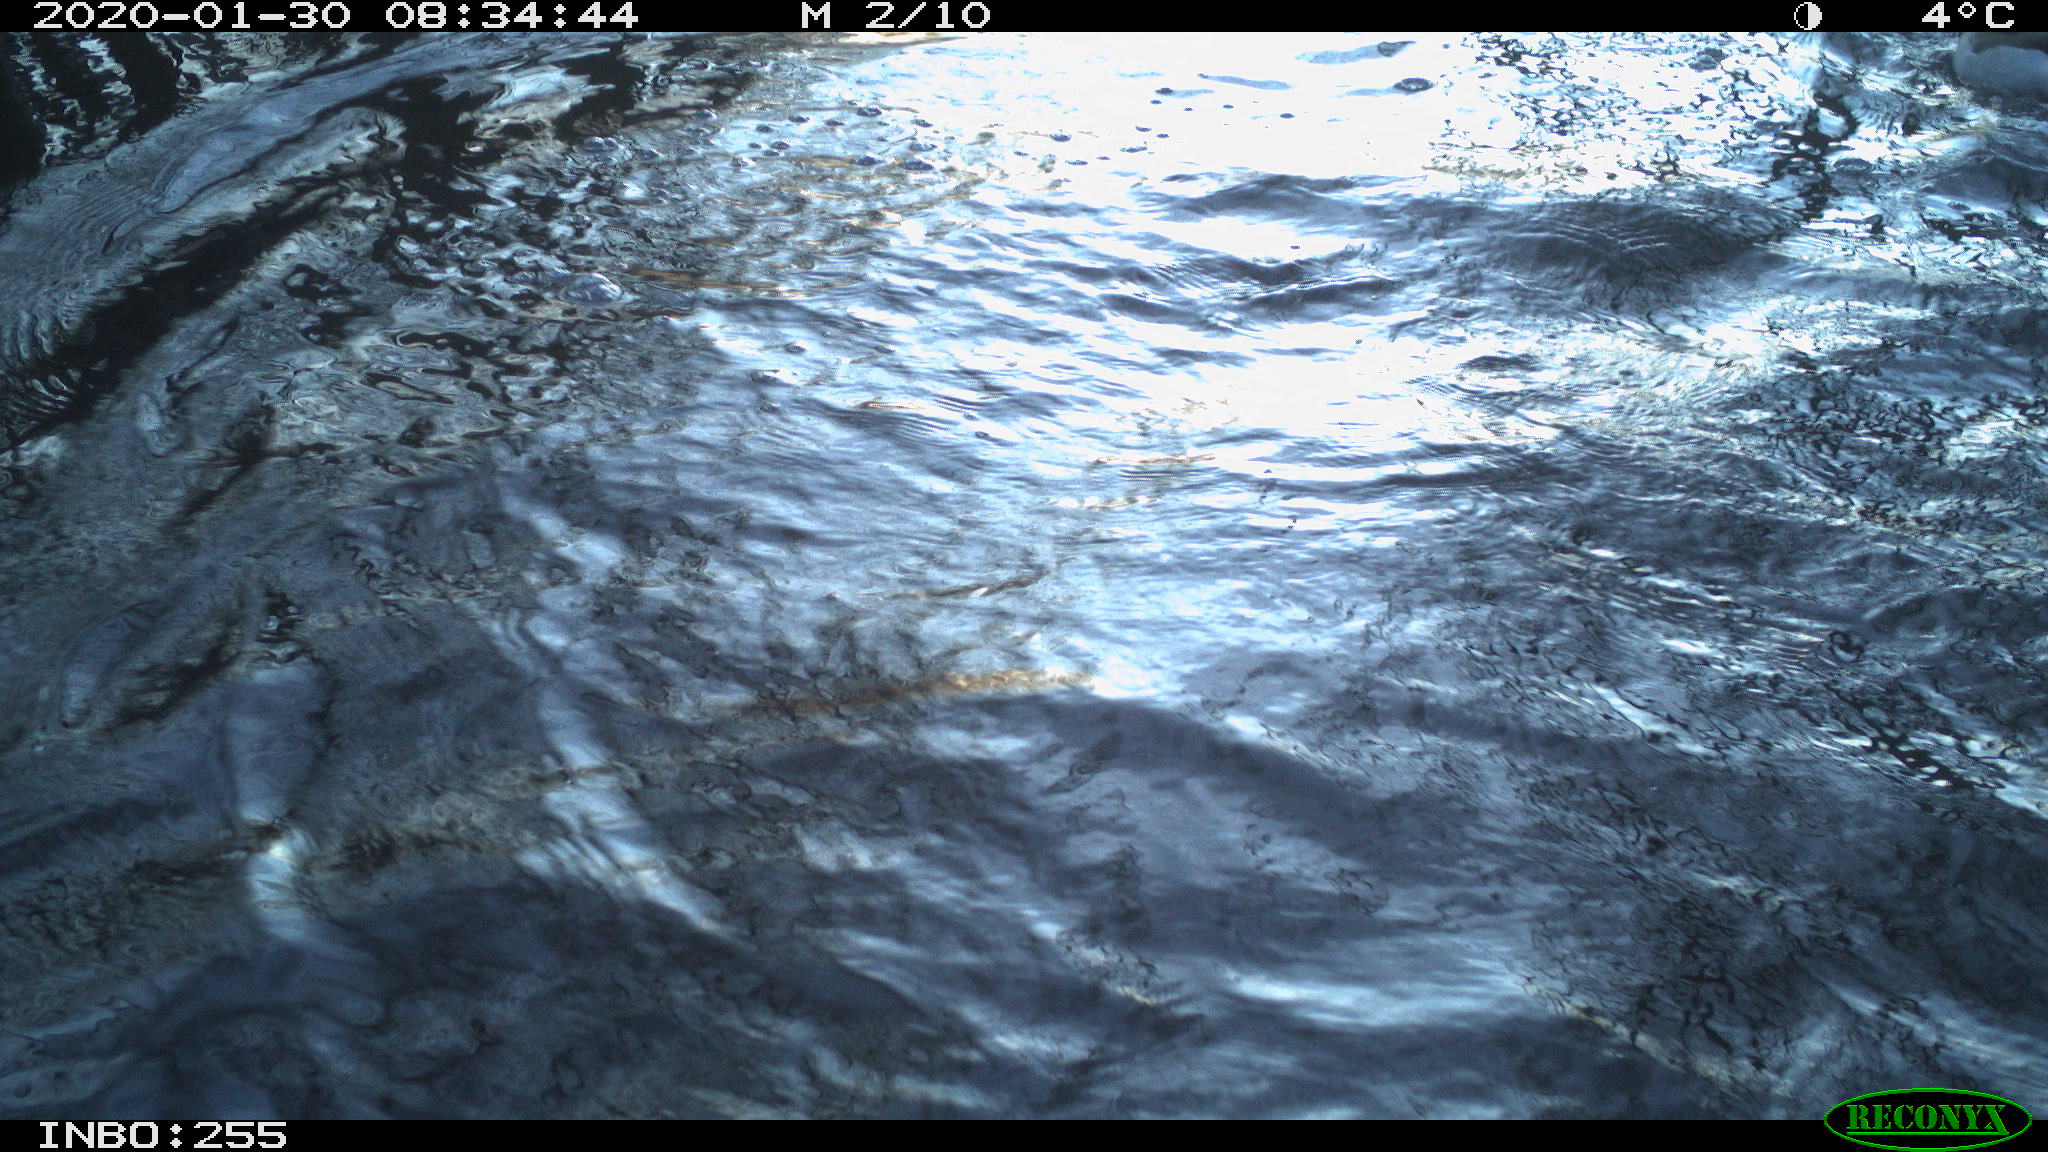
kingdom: Animalia
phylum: Chordata
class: Aves
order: Anseriformes
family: Anatidae
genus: Anas
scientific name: Anas platyrhynchos
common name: Mallard
